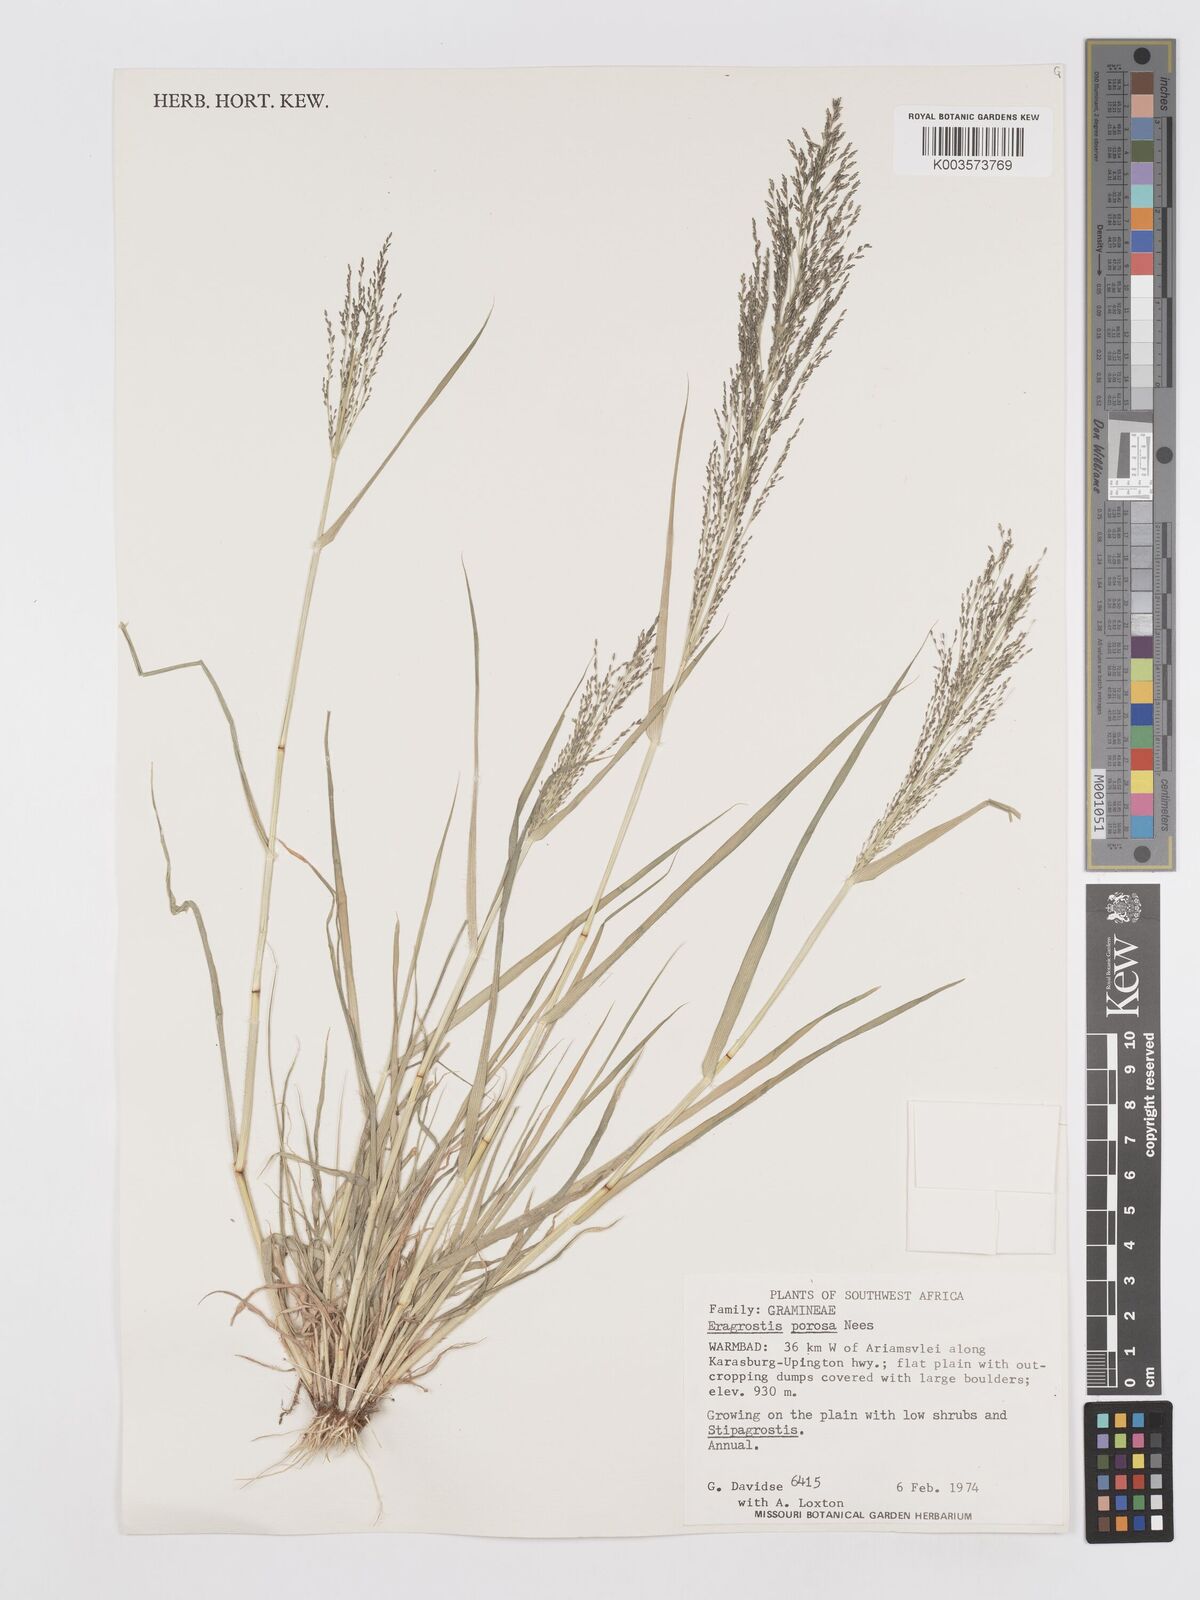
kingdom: Plantae
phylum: Tracheophyta
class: Liliopsida
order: Poales
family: Poaceae
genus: Eragrostis
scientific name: Eragrostis porosa
